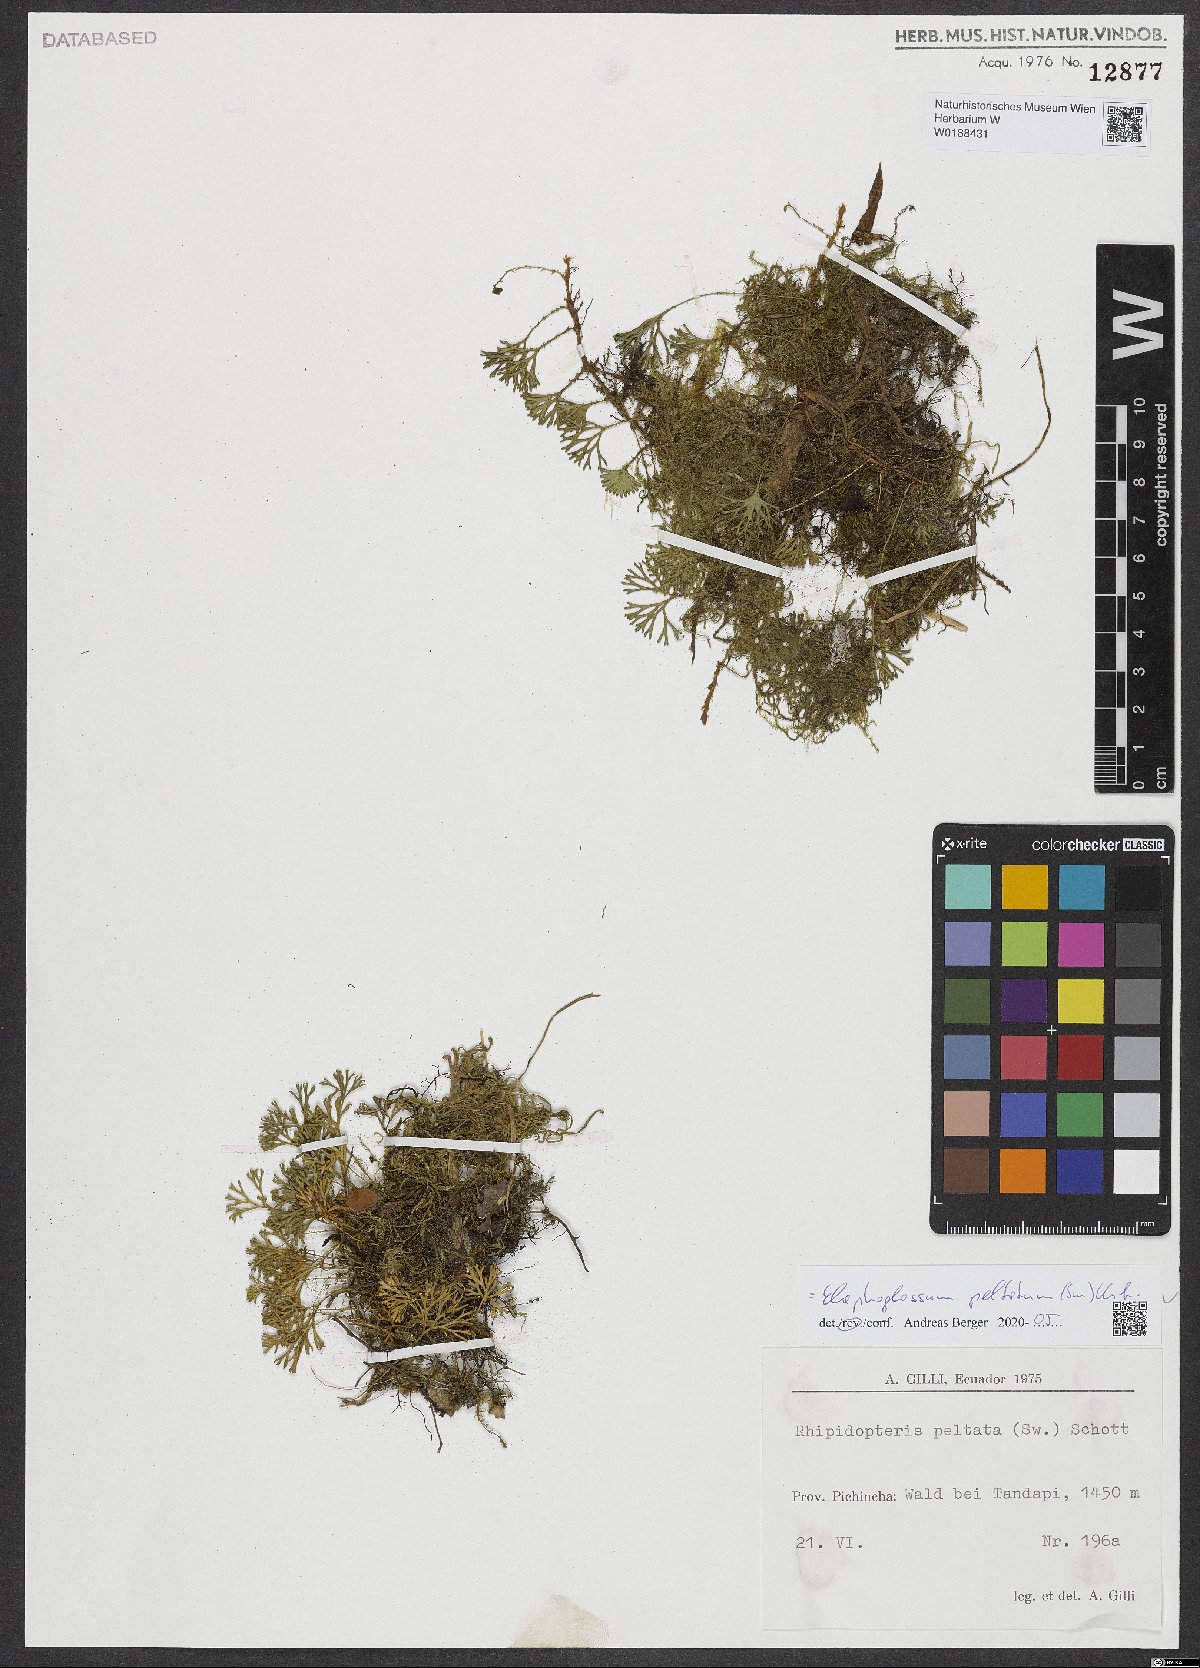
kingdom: Plantae
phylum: Tracheophyta
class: Polypodiopsida
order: Polypodiales
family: Dryopteridaceae
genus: Elaphoglossum
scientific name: Elaphoglossum peltatum
